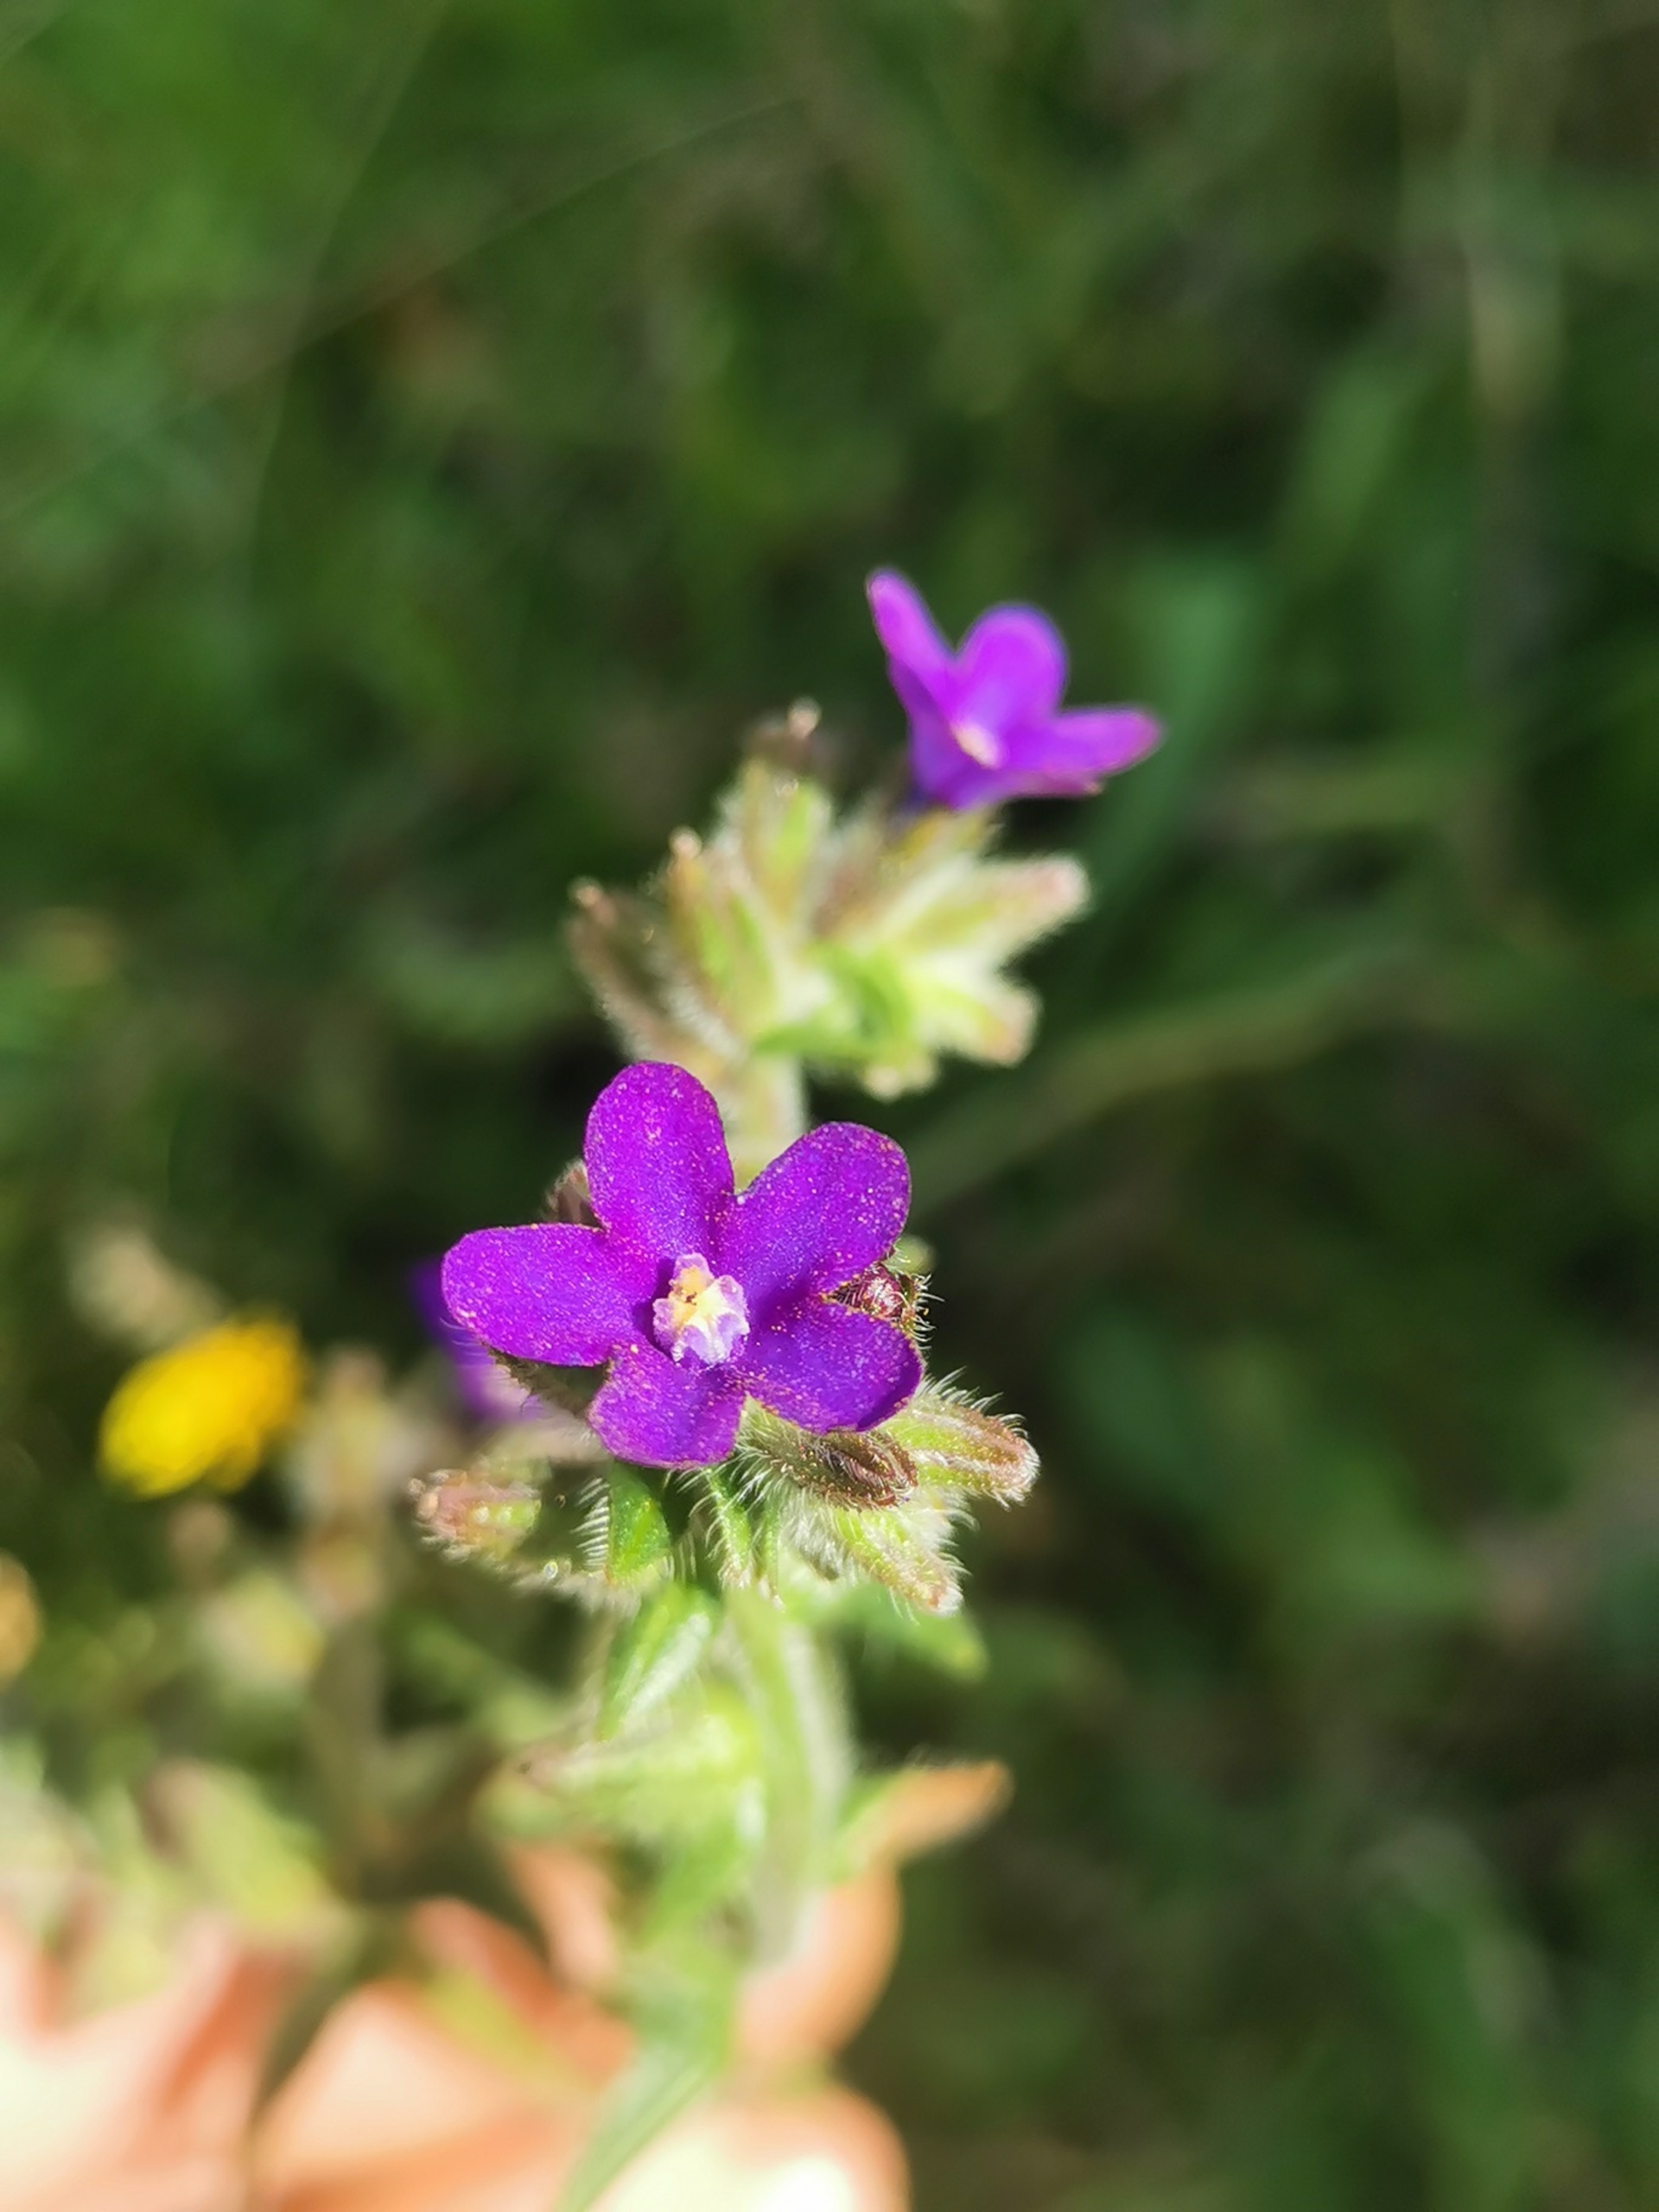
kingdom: Plantae
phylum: Tracheophyta
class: Magnoliopsida
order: Boraginales
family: Boraginaceae
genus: Anchusa
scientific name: Anchusa officinalis
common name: Læge-oksetunge
